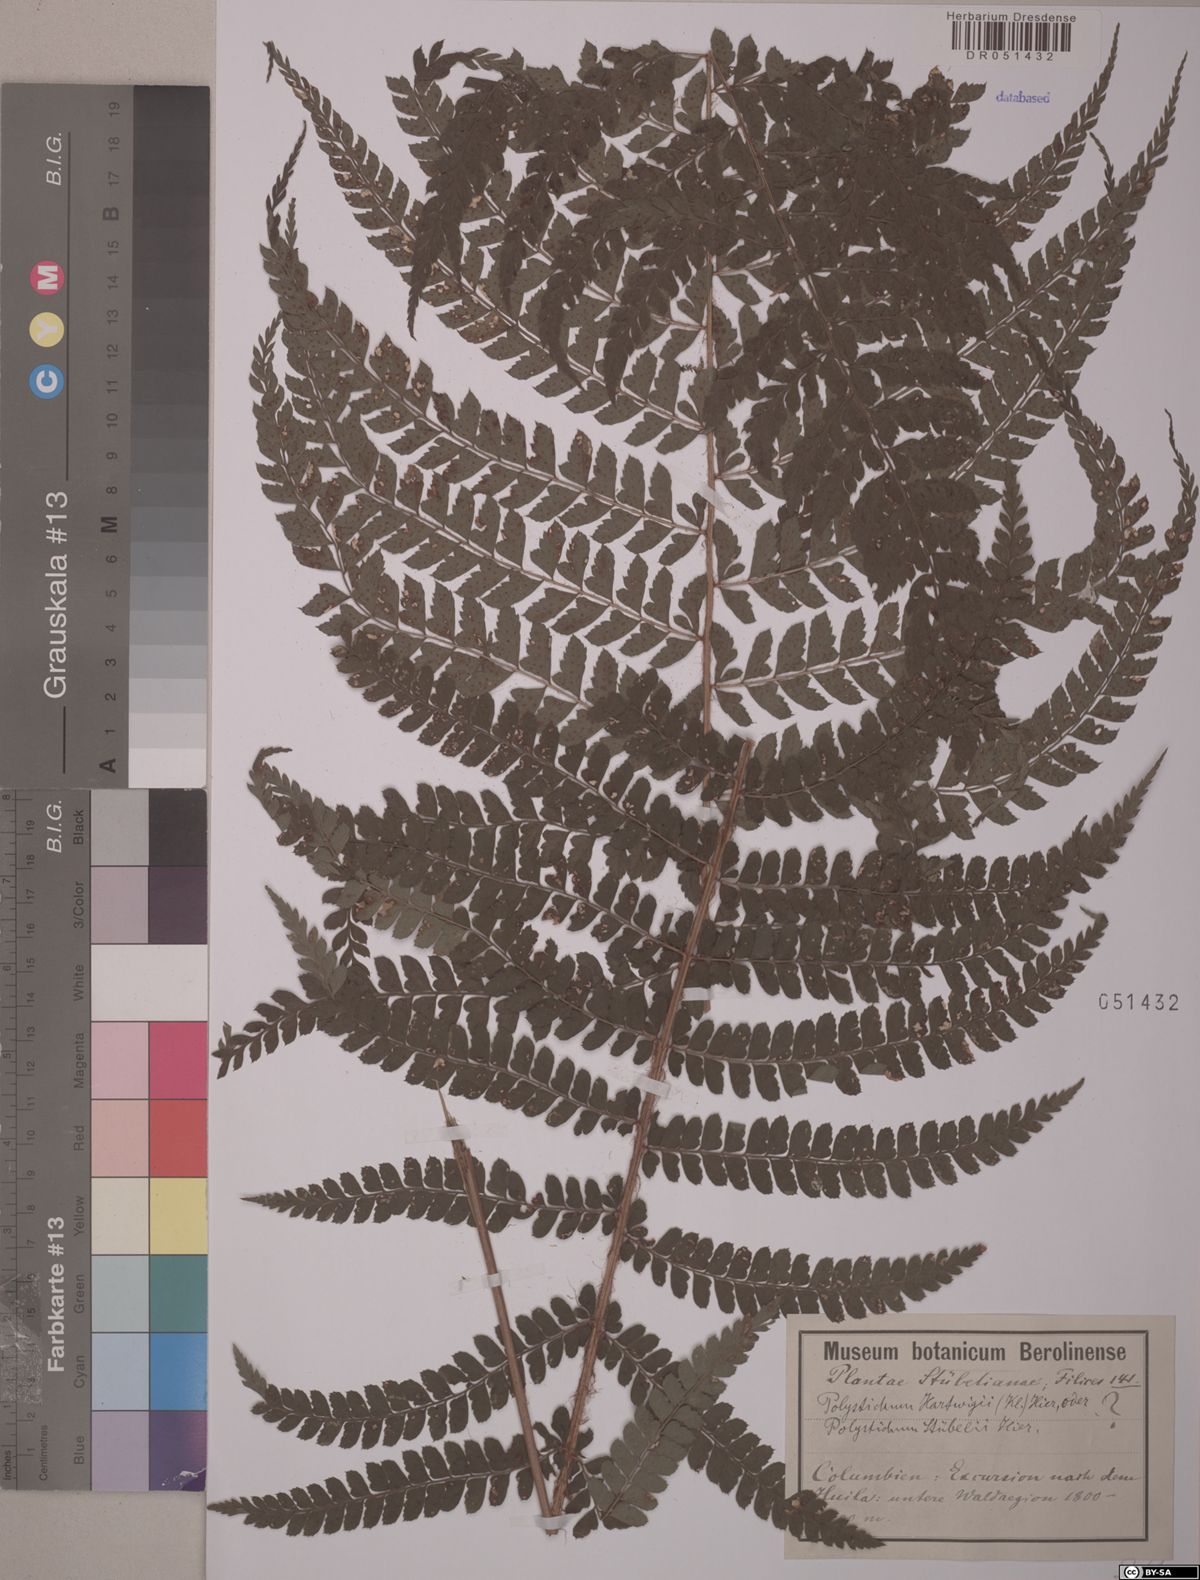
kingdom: Plantae
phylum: Tracheophyta
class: Polypodiopsida
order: Polypodiales
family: Dryopteridaceae
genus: Polystichum
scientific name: Polystichum stuebelii
